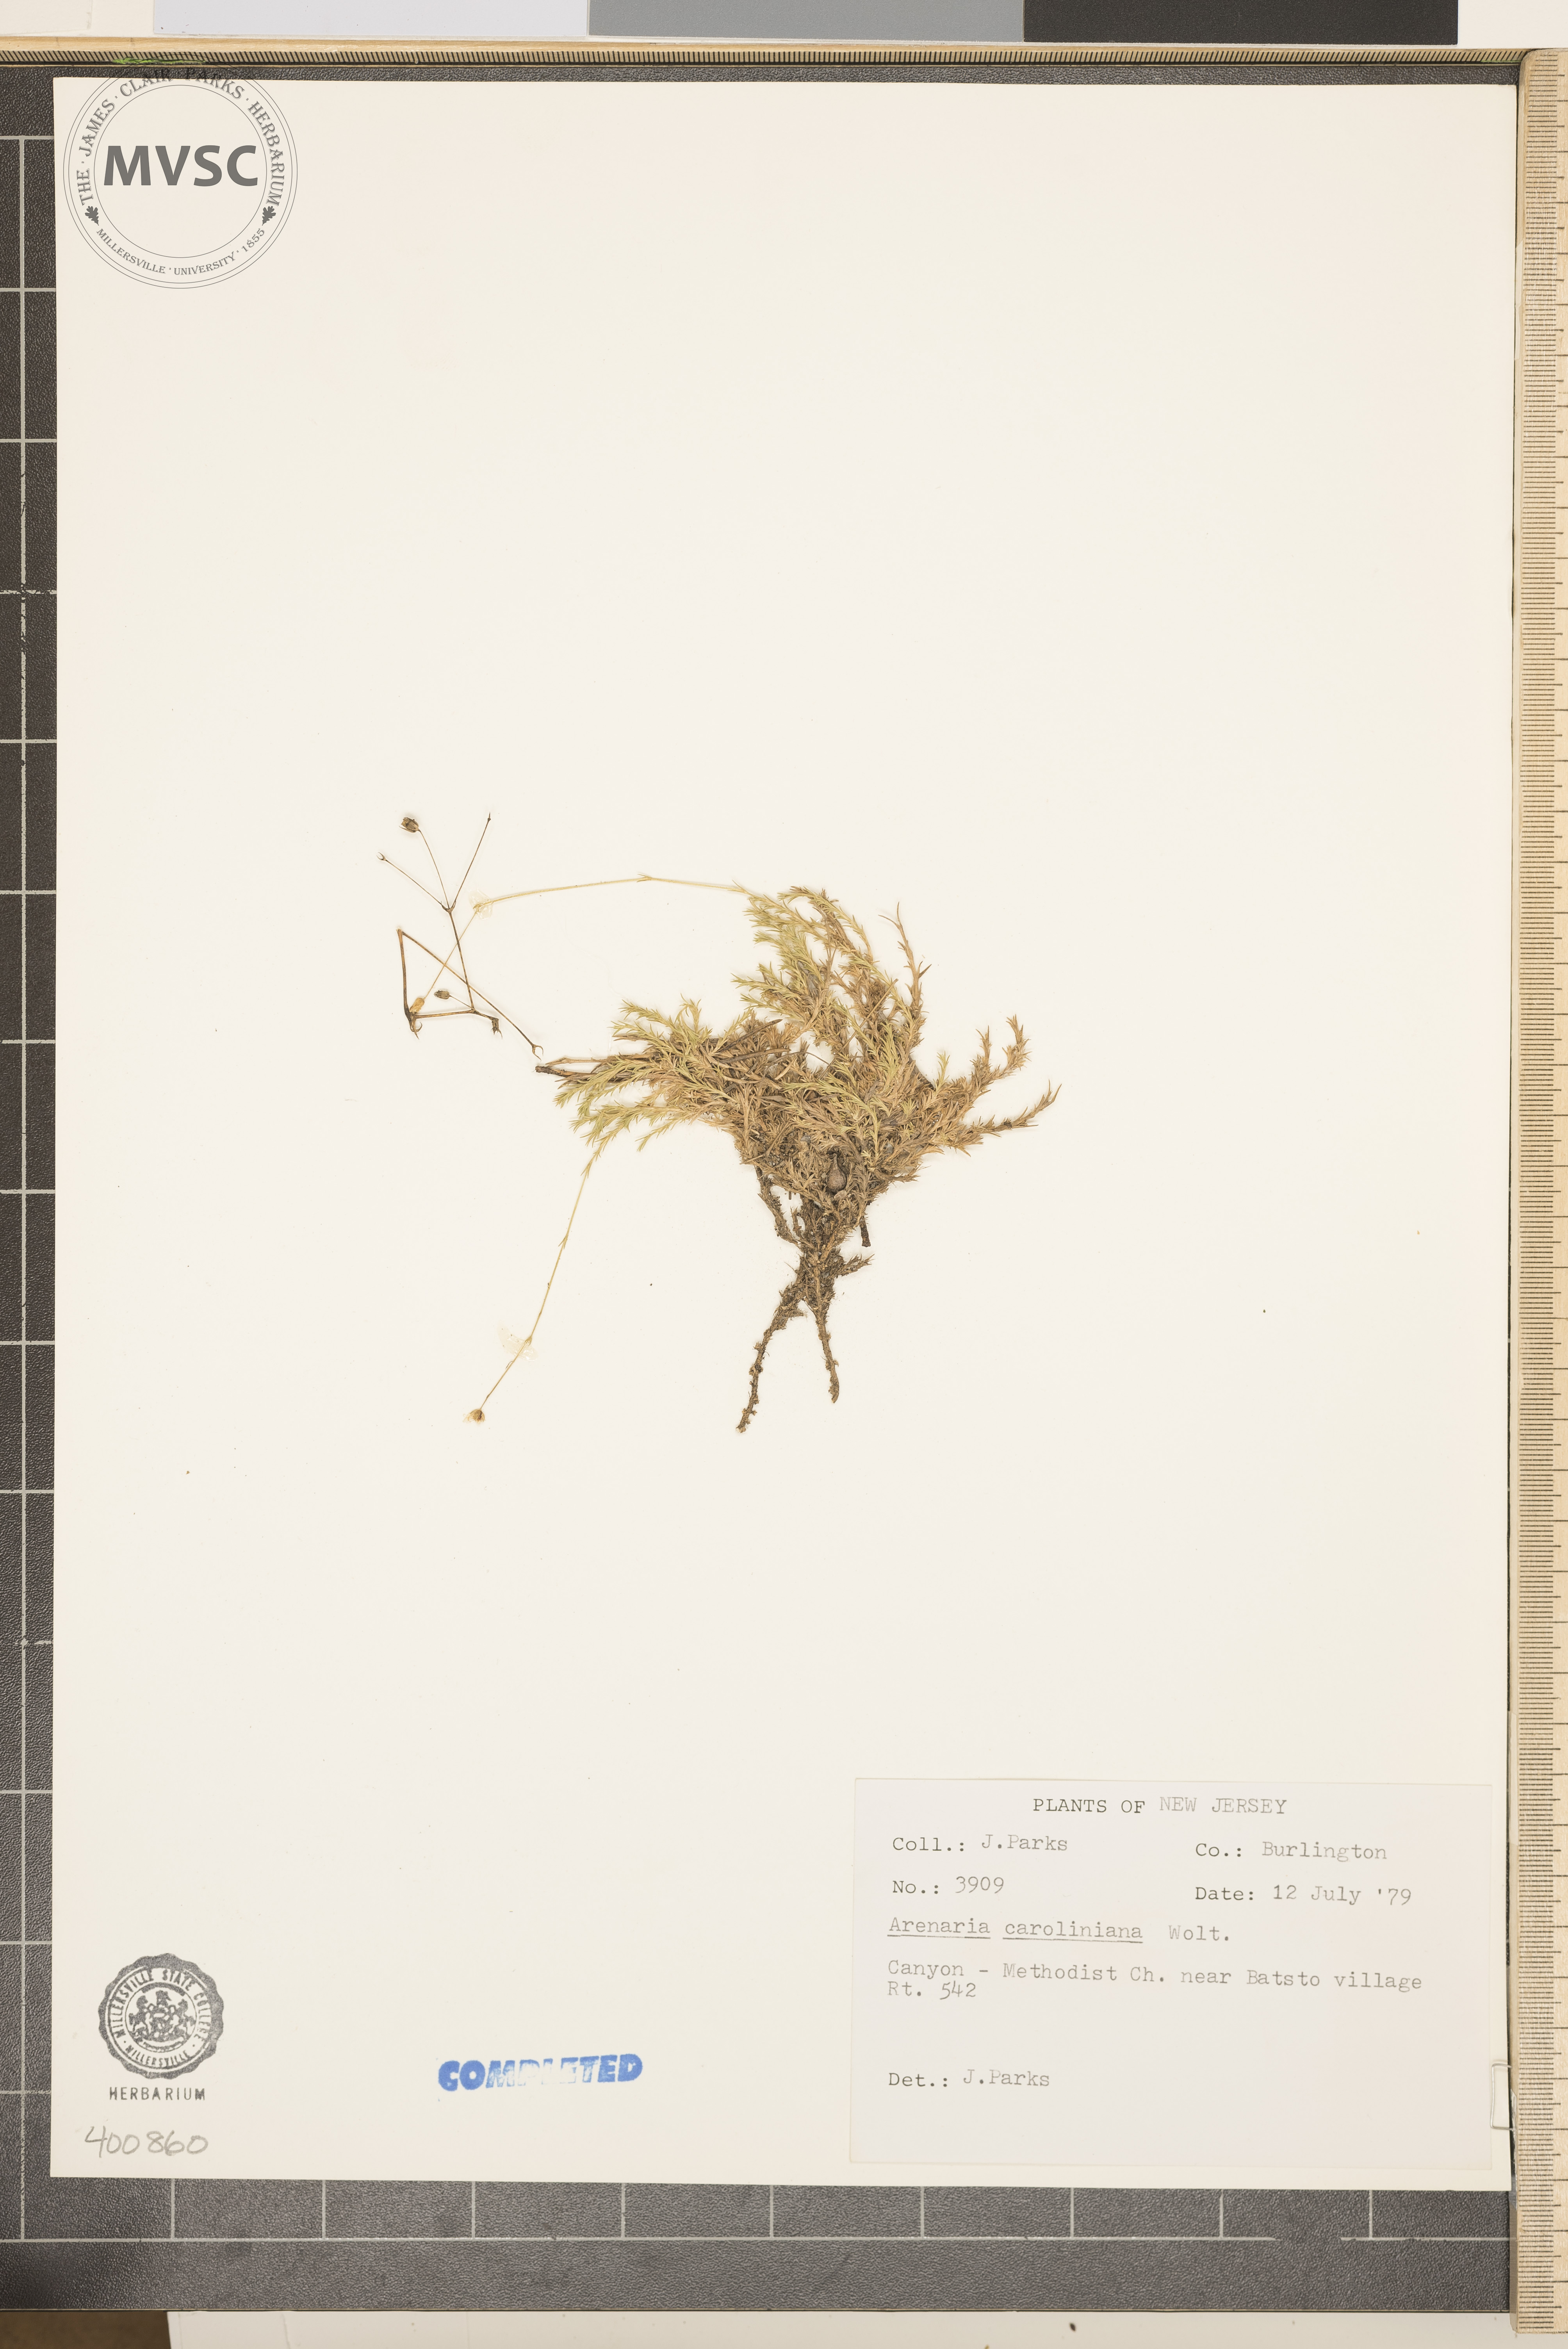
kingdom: Plantae
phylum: Tracheophyta
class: Magnoliopsida
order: Caryophyllales
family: Caryophyllaceae
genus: Geocarpon
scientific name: Geocarpon carolinianum
